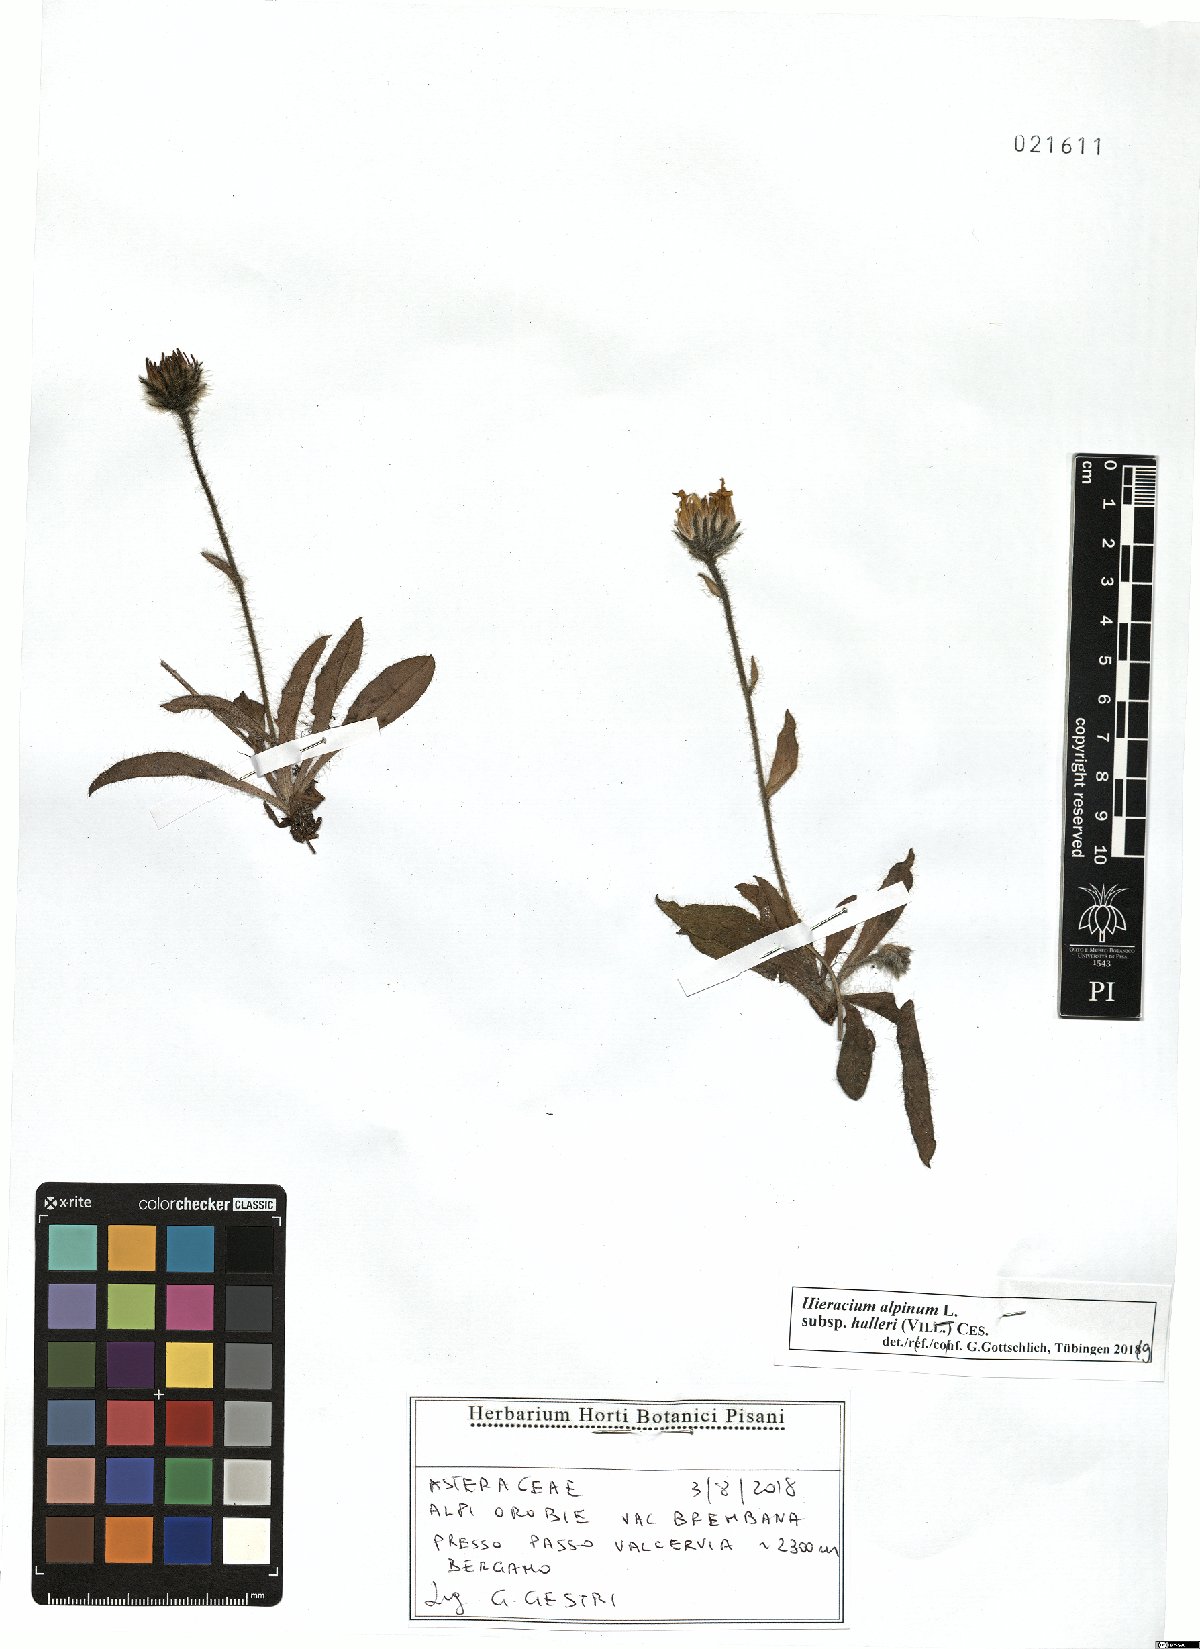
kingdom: Plantae
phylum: Tracheophyta
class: Magnoliopsida
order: Asterales
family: Asteraceae
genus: Hieracium
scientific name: Hieracium alpinum
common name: Alpine hawkweed
